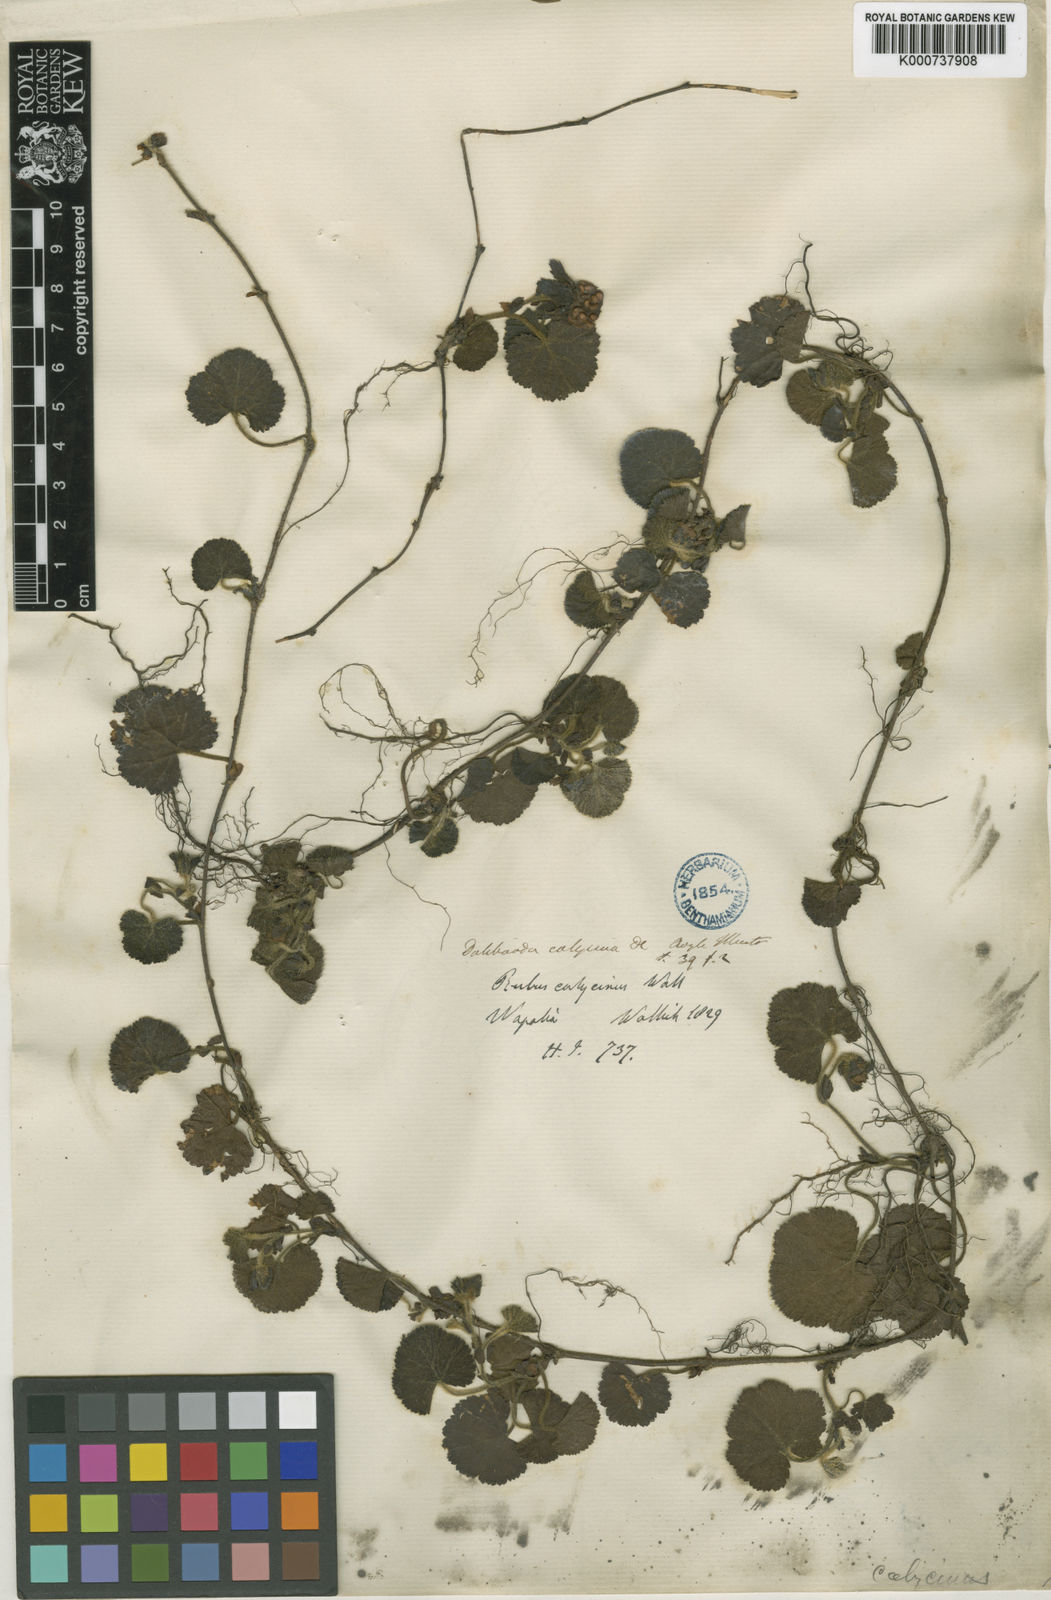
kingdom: Plantae
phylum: Tracheophyta
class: Magnoliopsida
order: Rosales
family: Rosaceae
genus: Rubus
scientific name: Rubus
